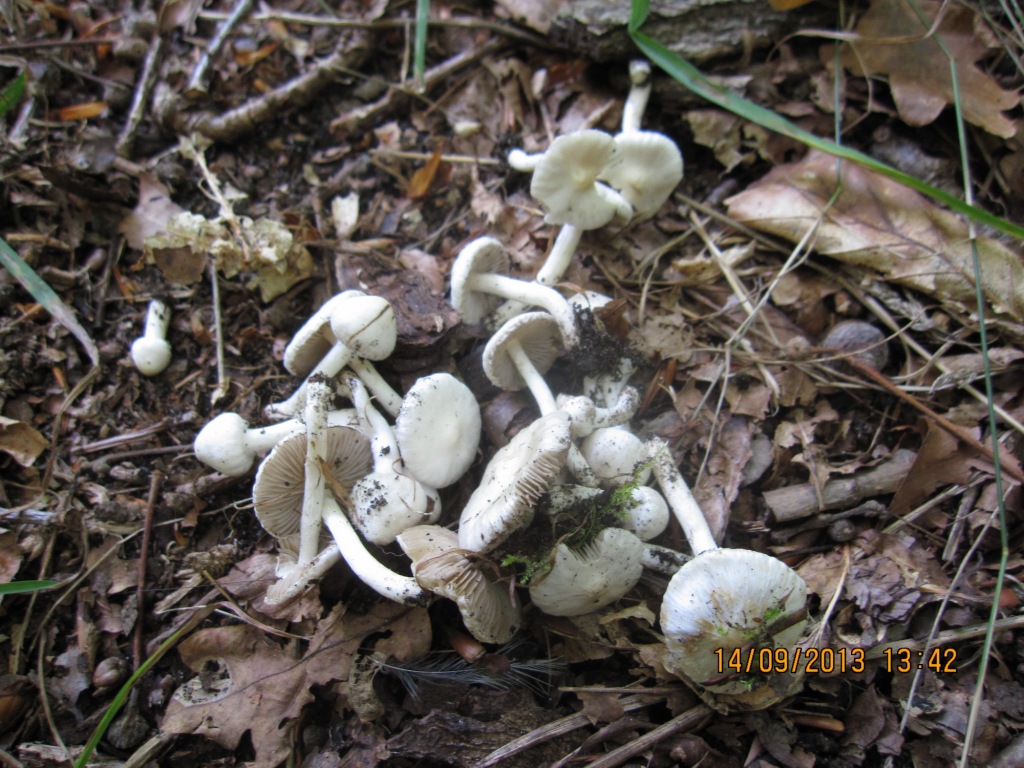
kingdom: Fungi
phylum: Basidiomycota
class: Agaricomycetes
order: Agaricales
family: Inocybaceae
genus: Inocybe
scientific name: Inocybe
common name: almindelig trævlhat
